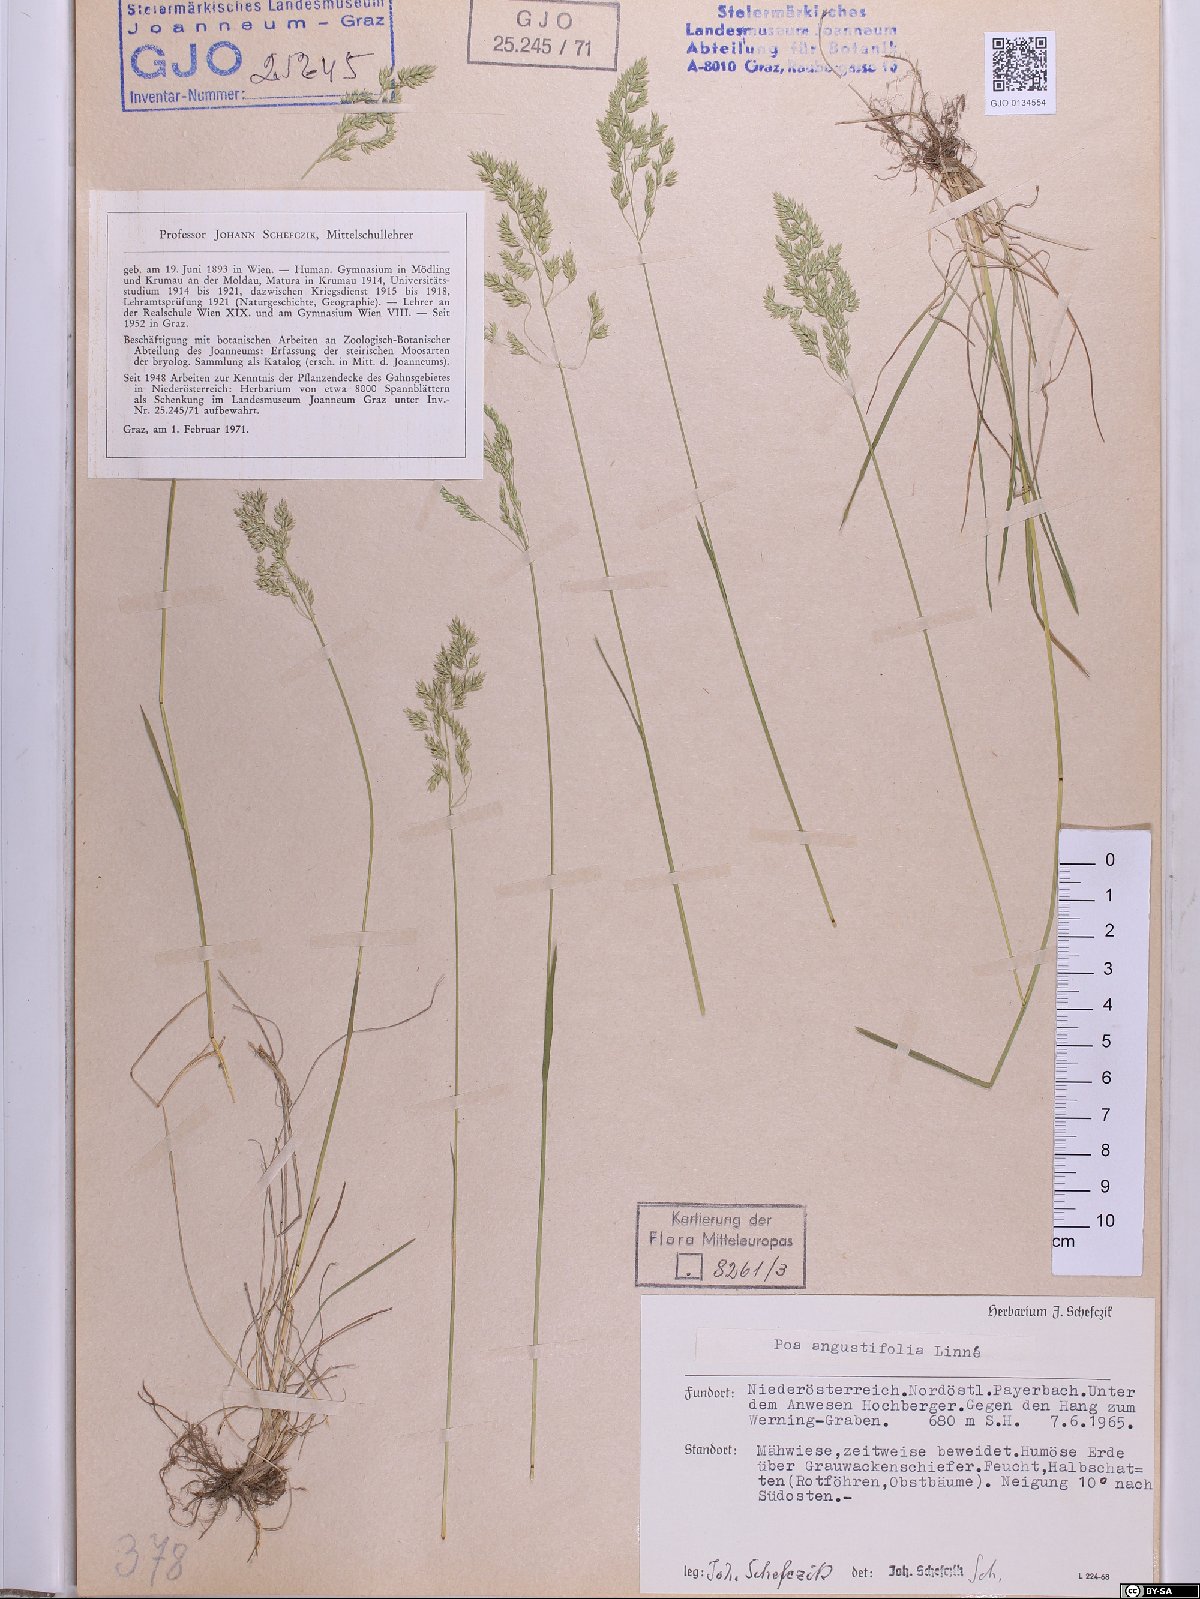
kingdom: Plantae
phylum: Tracheophyta
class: Liliopsida
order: Poales
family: Poaceae
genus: Poa
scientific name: Poa angustifolia
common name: Narrow-leaved meadow-grass
